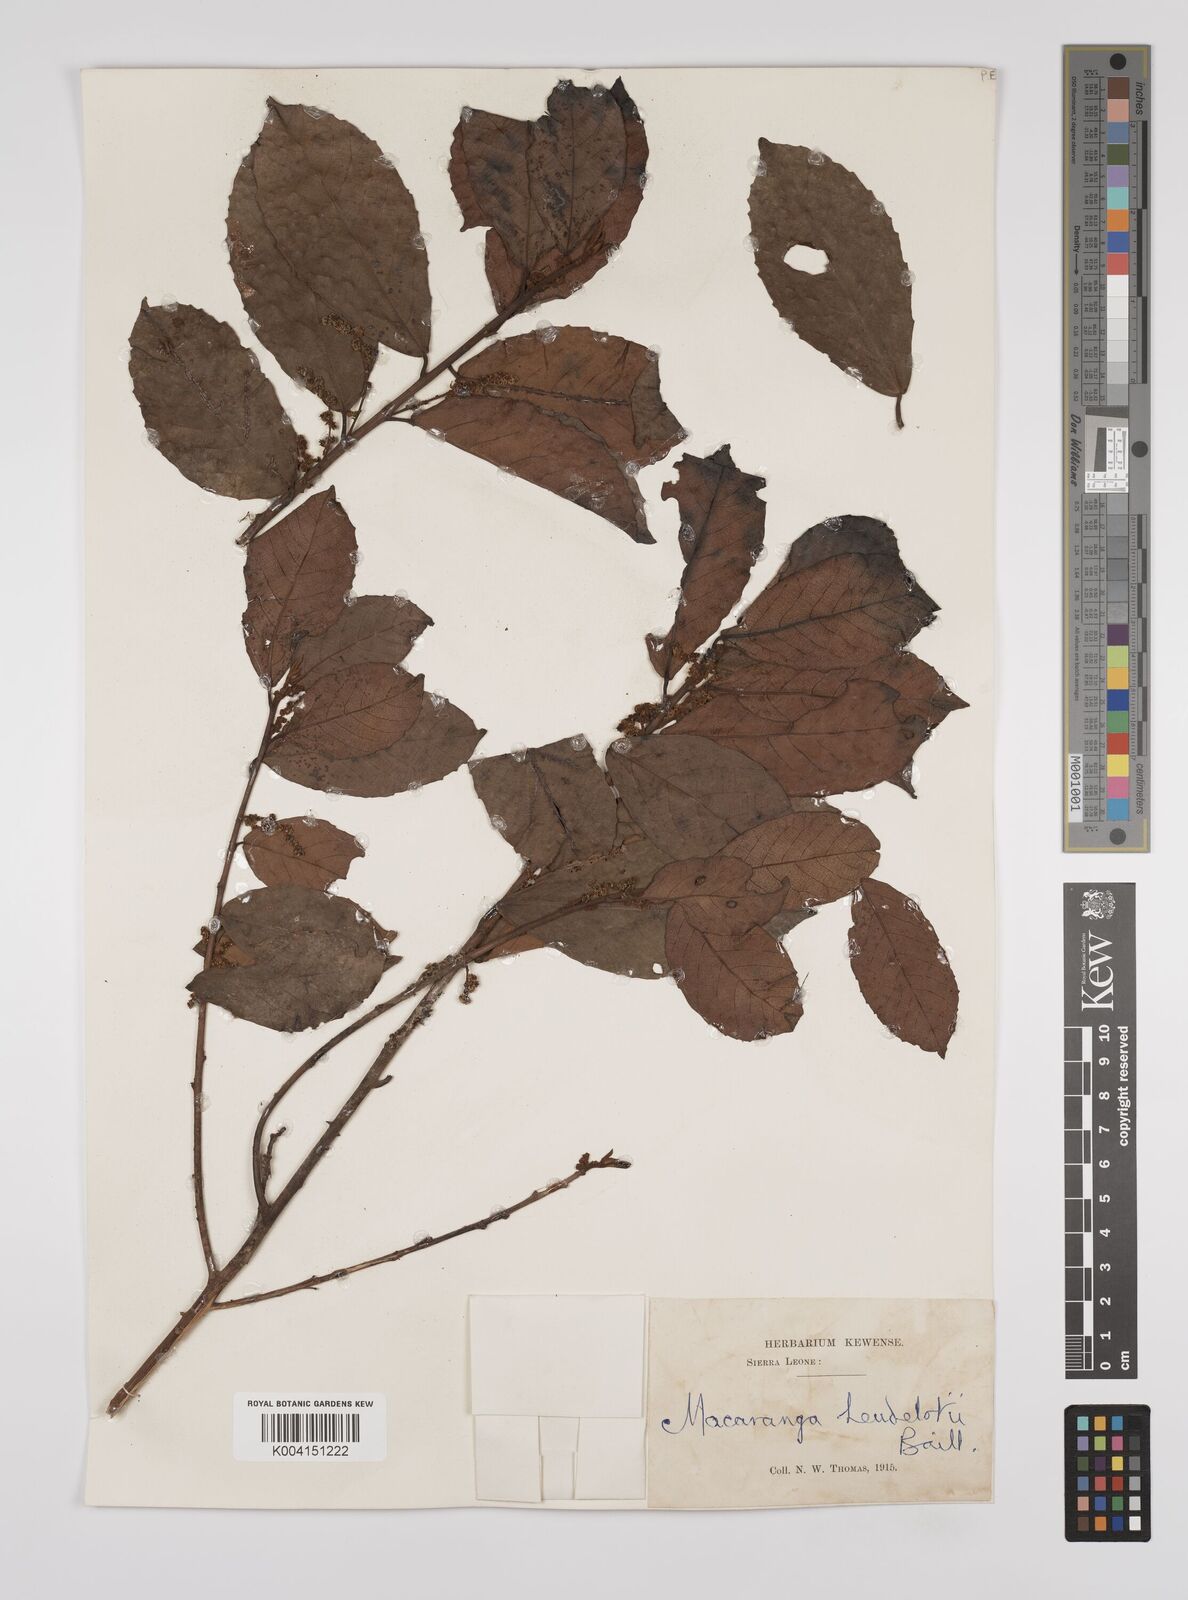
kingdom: Plantae
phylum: Tracheophyta
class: Magnoliopsida
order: Malpighiales
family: Euphorbiaceae
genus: Macaranga
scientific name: Macaranga heudelotii
